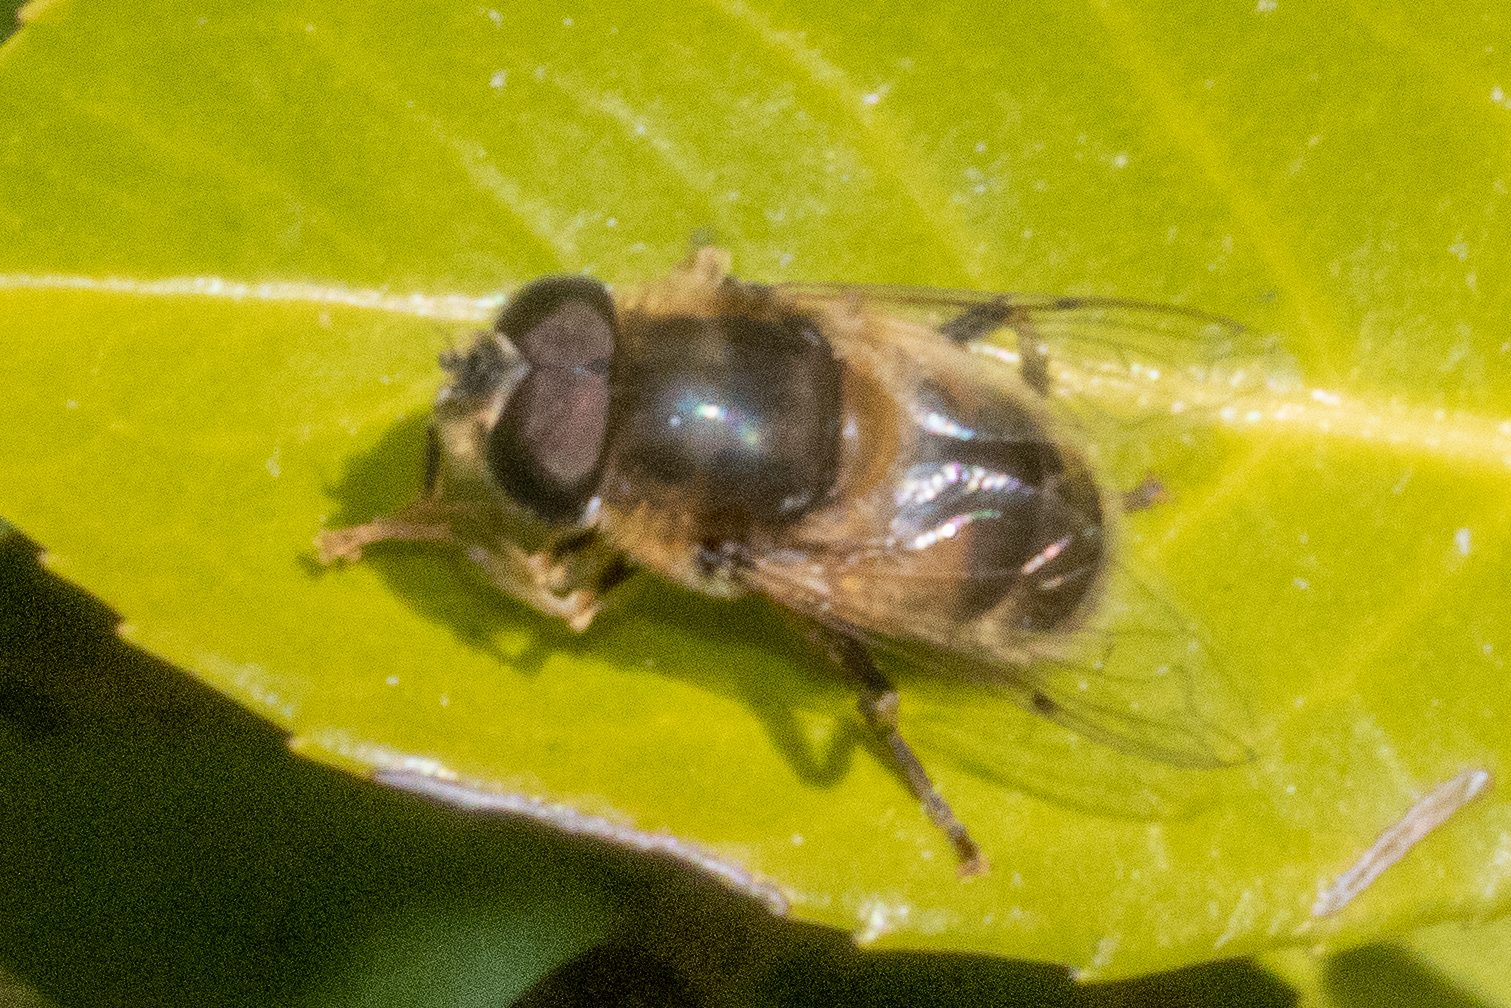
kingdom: Animalia
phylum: Arthropoda
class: Insecta
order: Diptera
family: Syrphidae
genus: Eristalis
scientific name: Eristalis pertinax
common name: Gulfodet dyndflue
